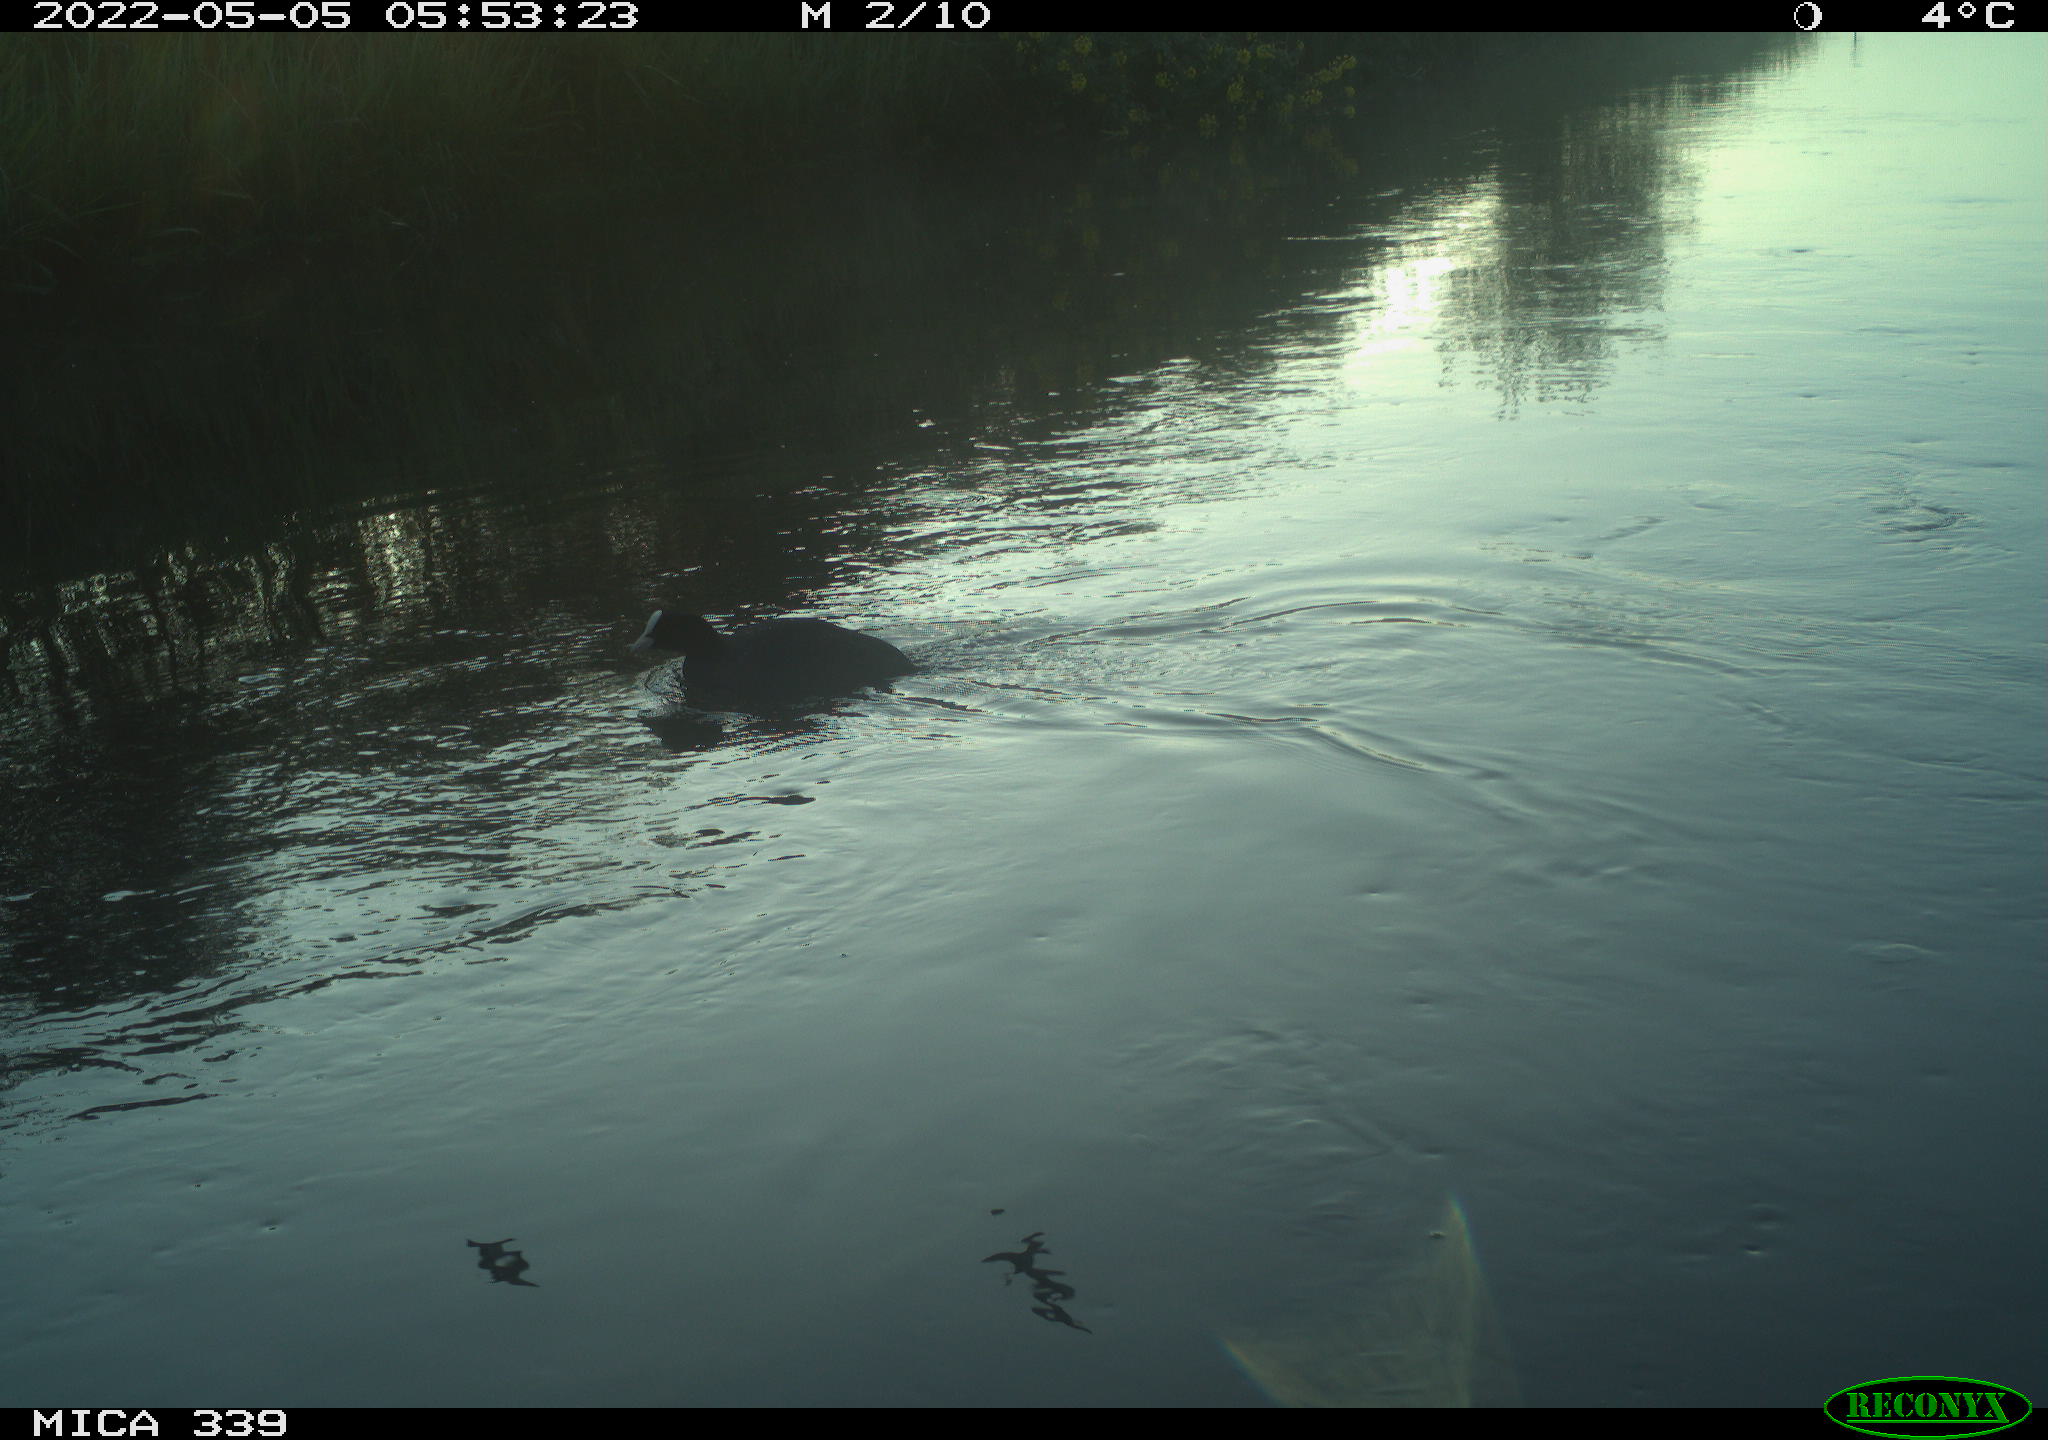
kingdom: Animalia
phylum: Chordata
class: Aves
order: Gruiformes
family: Rallidae
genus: Fulica
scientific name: Fulica atra
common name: Eurasian coot
